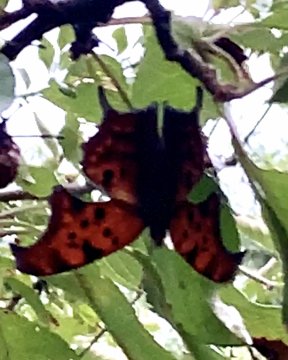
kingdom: Animalia
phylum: Arthropoda
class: Insecta
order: Lepidoptera
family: Nymphalidae
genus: Polygonia
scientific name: Polygonia interrogationis
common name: Question Mark
